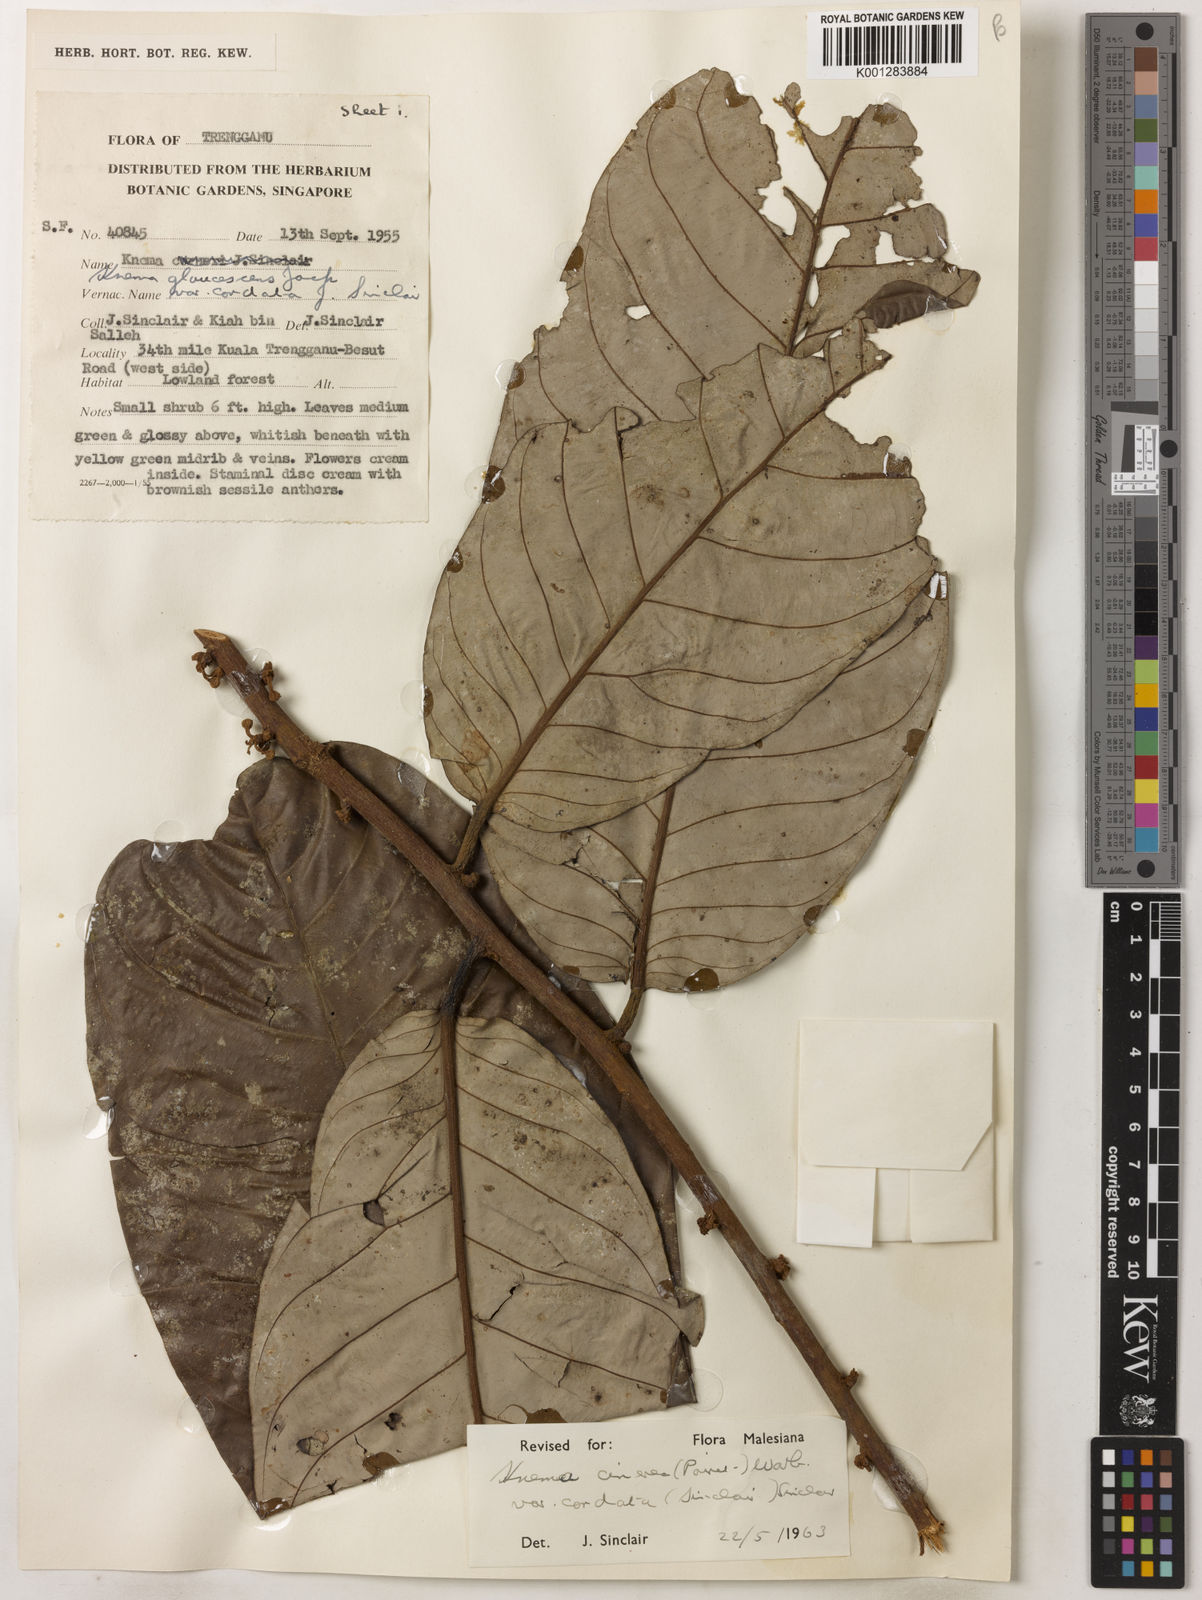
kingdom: Plantae
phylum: Tracheophyta
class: Magnoliopsida
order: Magnoliales
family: Myristicaceae
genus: Knema
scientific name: Knema
